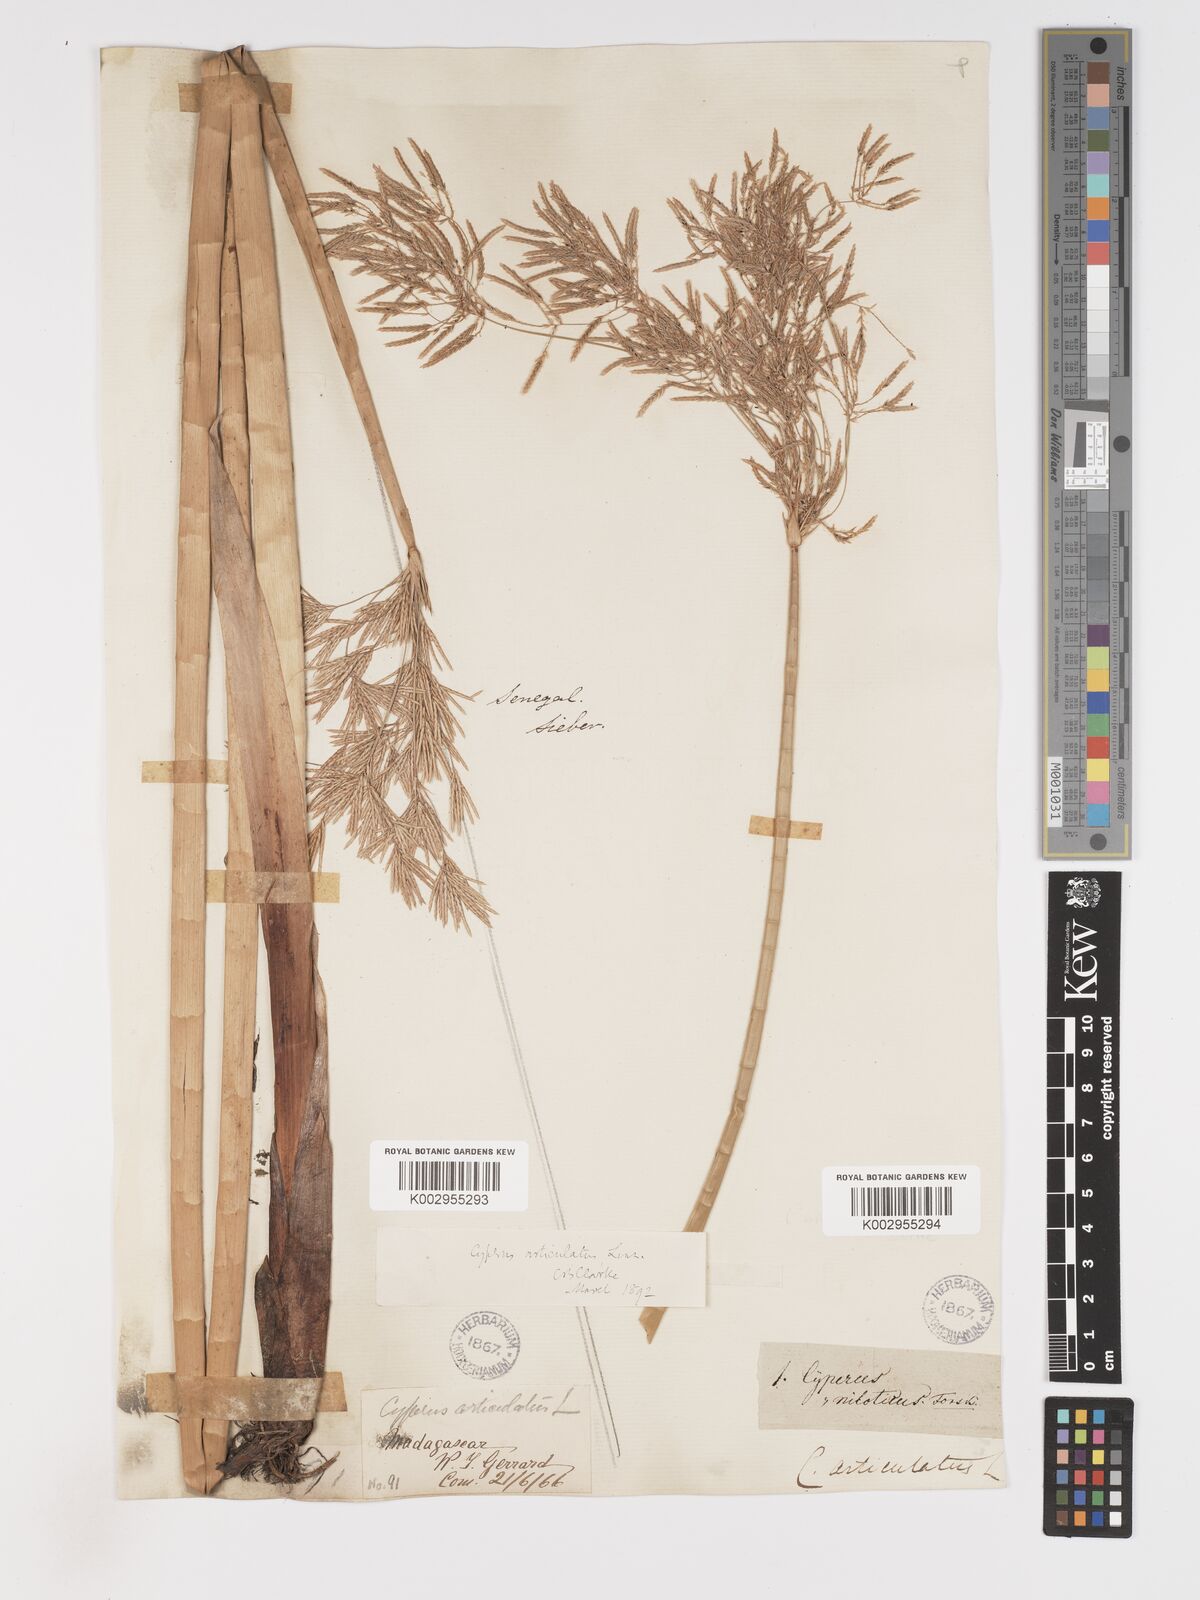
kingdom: Plantae
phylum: Tracheophyta
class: Liliopsida
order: Poales
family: Cyperaceae
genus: Cyperus
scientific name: Cyperus articulatus
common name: Jointed flatsedge
